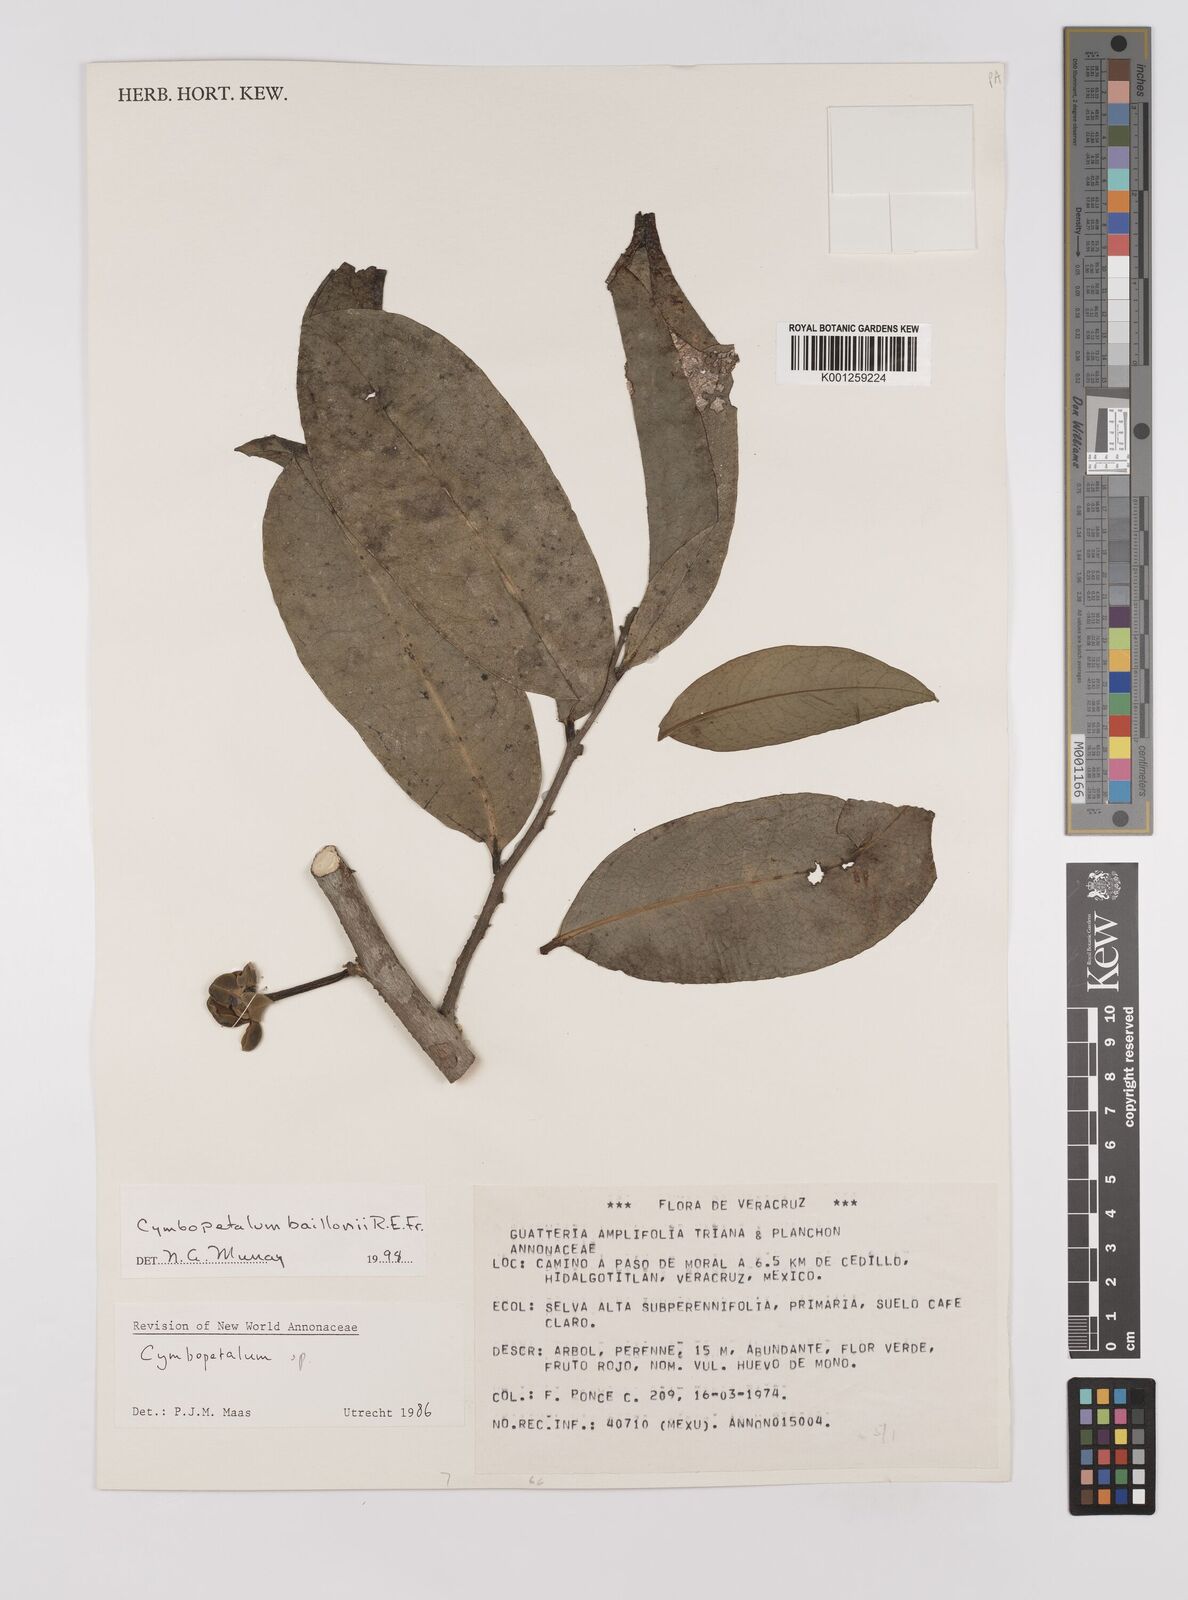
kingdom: Plantae
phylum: Tracheophyta
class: Magnoliopsida
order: Magnoliales
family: Annonaceae
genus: Cymbopetalum
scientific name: Cymbopetalum baillonii
